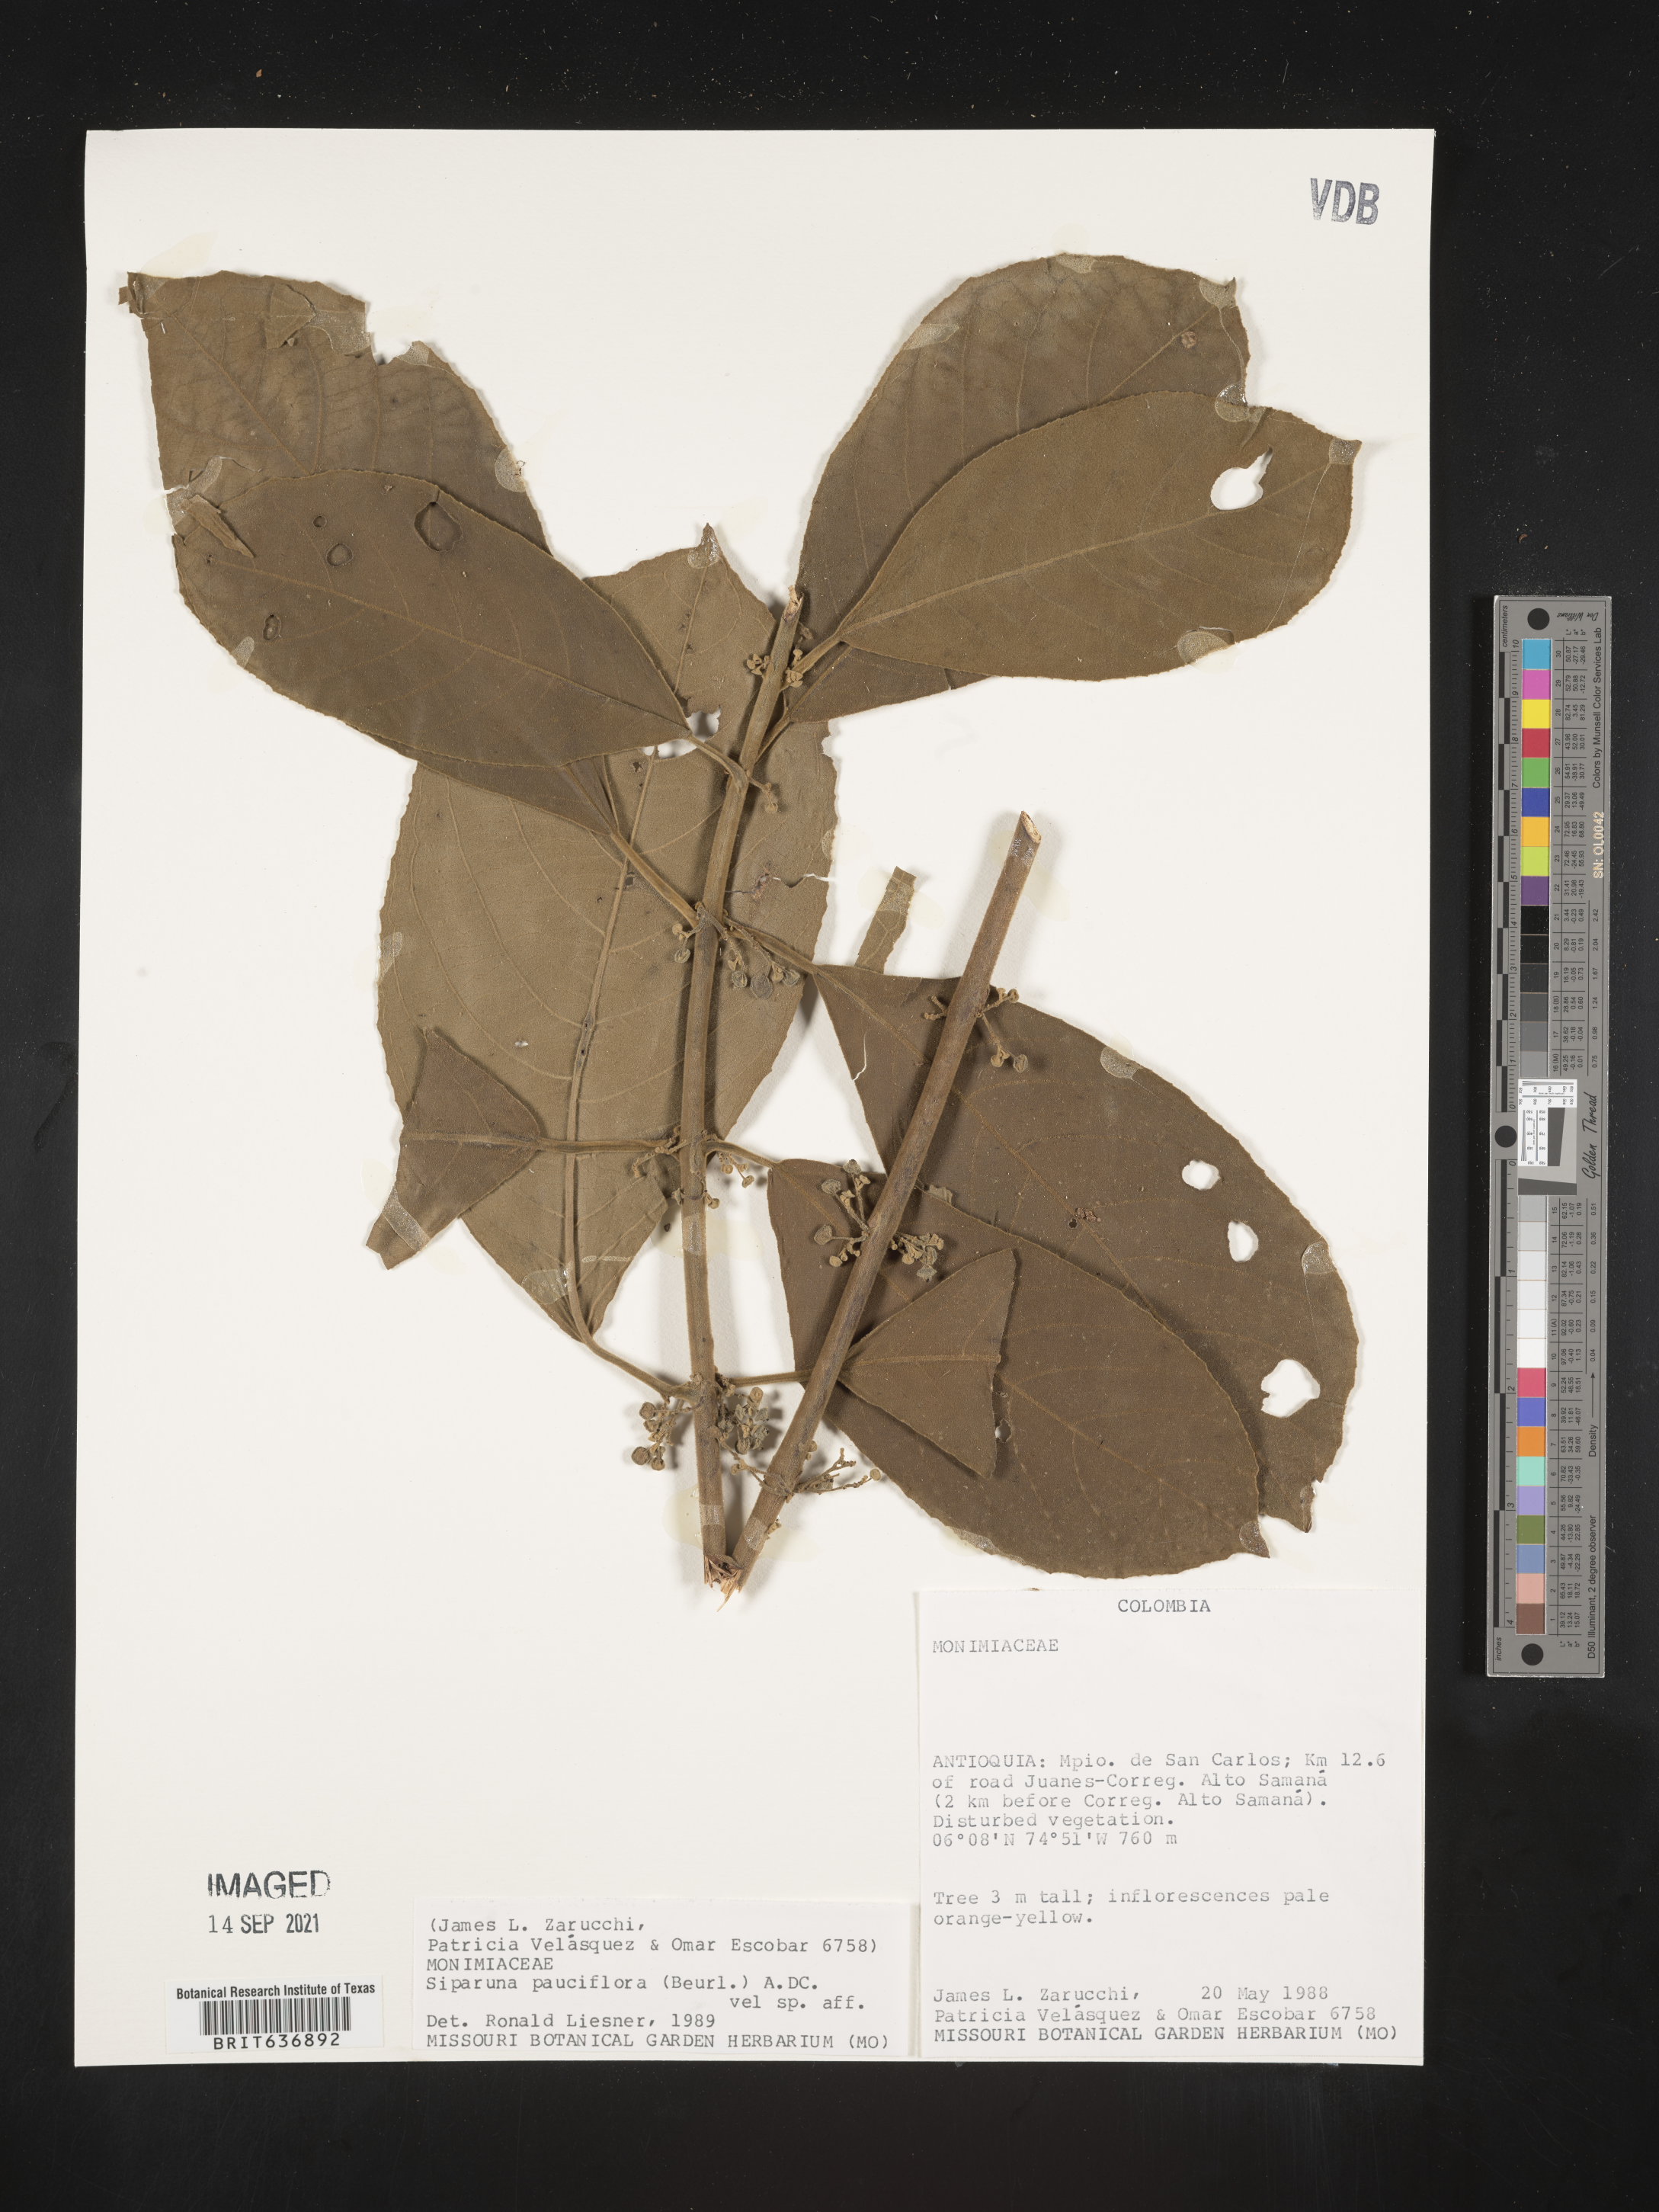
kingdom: Plantae
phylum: Tracheophyta
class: Magnoliopsida
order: Laurales
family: Siparunaceae
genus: Siparuna
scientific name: Siparuna
